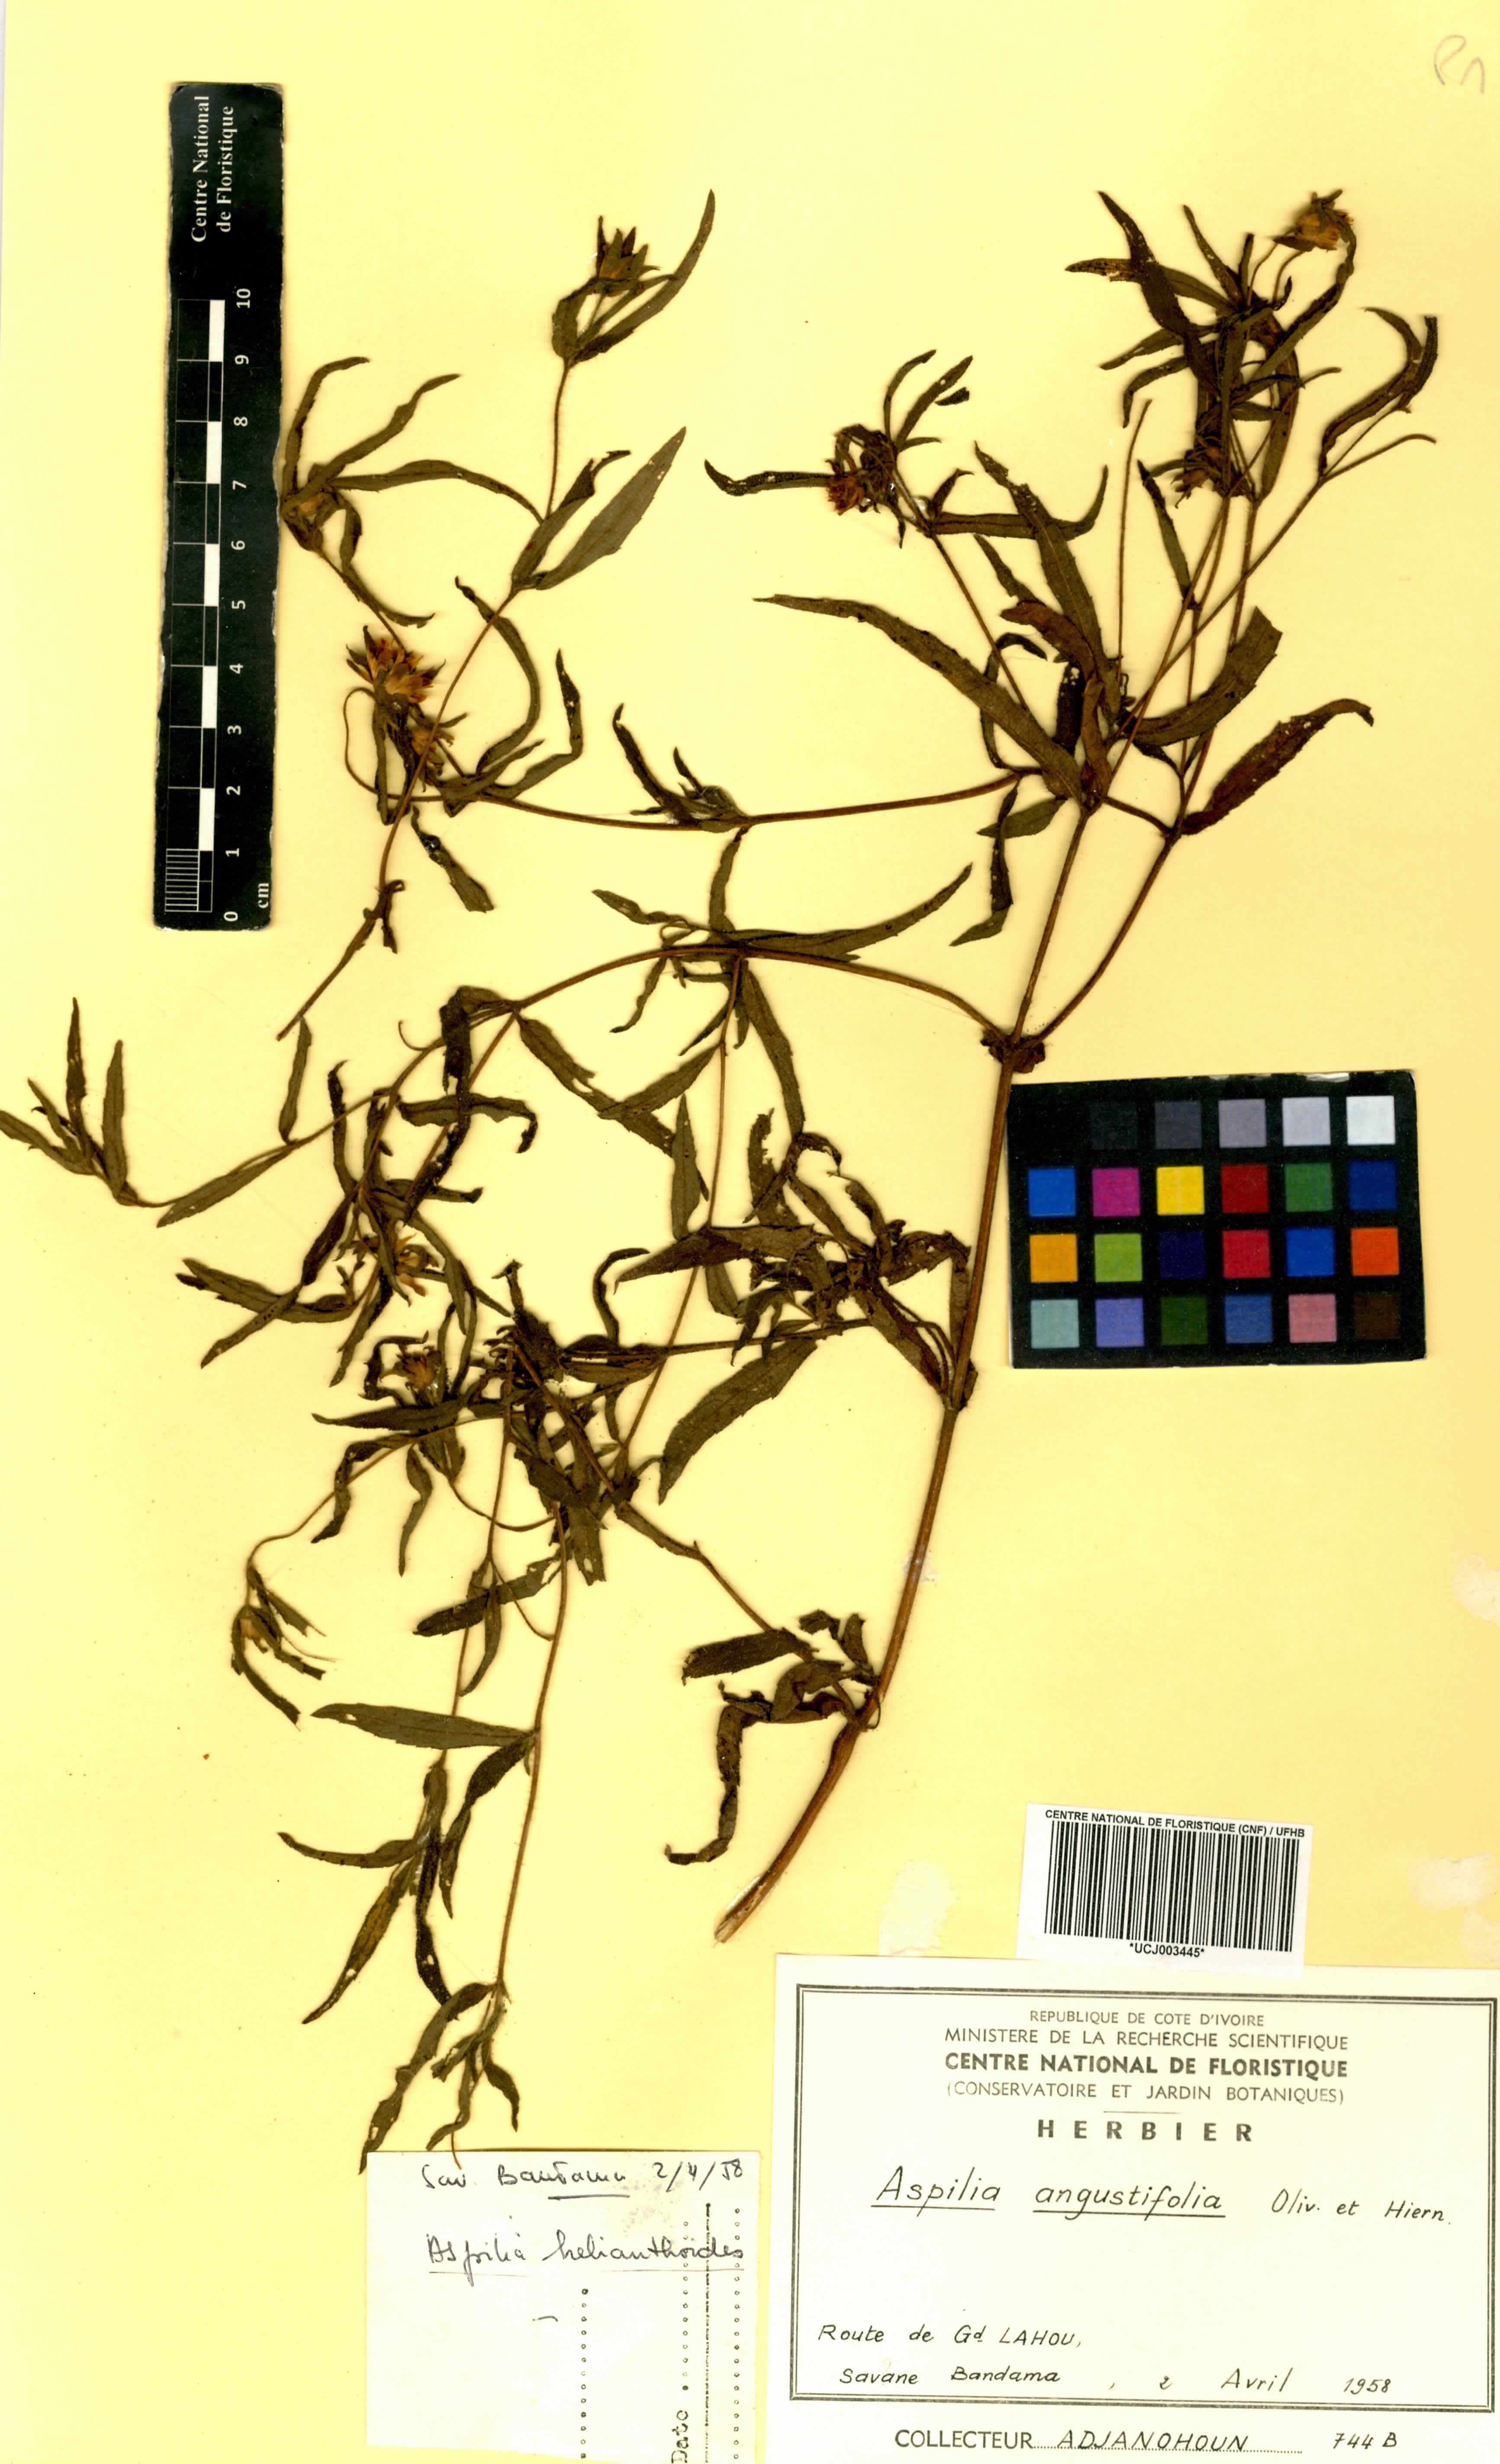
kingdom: Plantae
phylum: Tracheophyta
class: Magnoliopsida
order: Asterales
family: Asteraceae
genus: Aspilia
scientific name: Aspilia angustifolia
